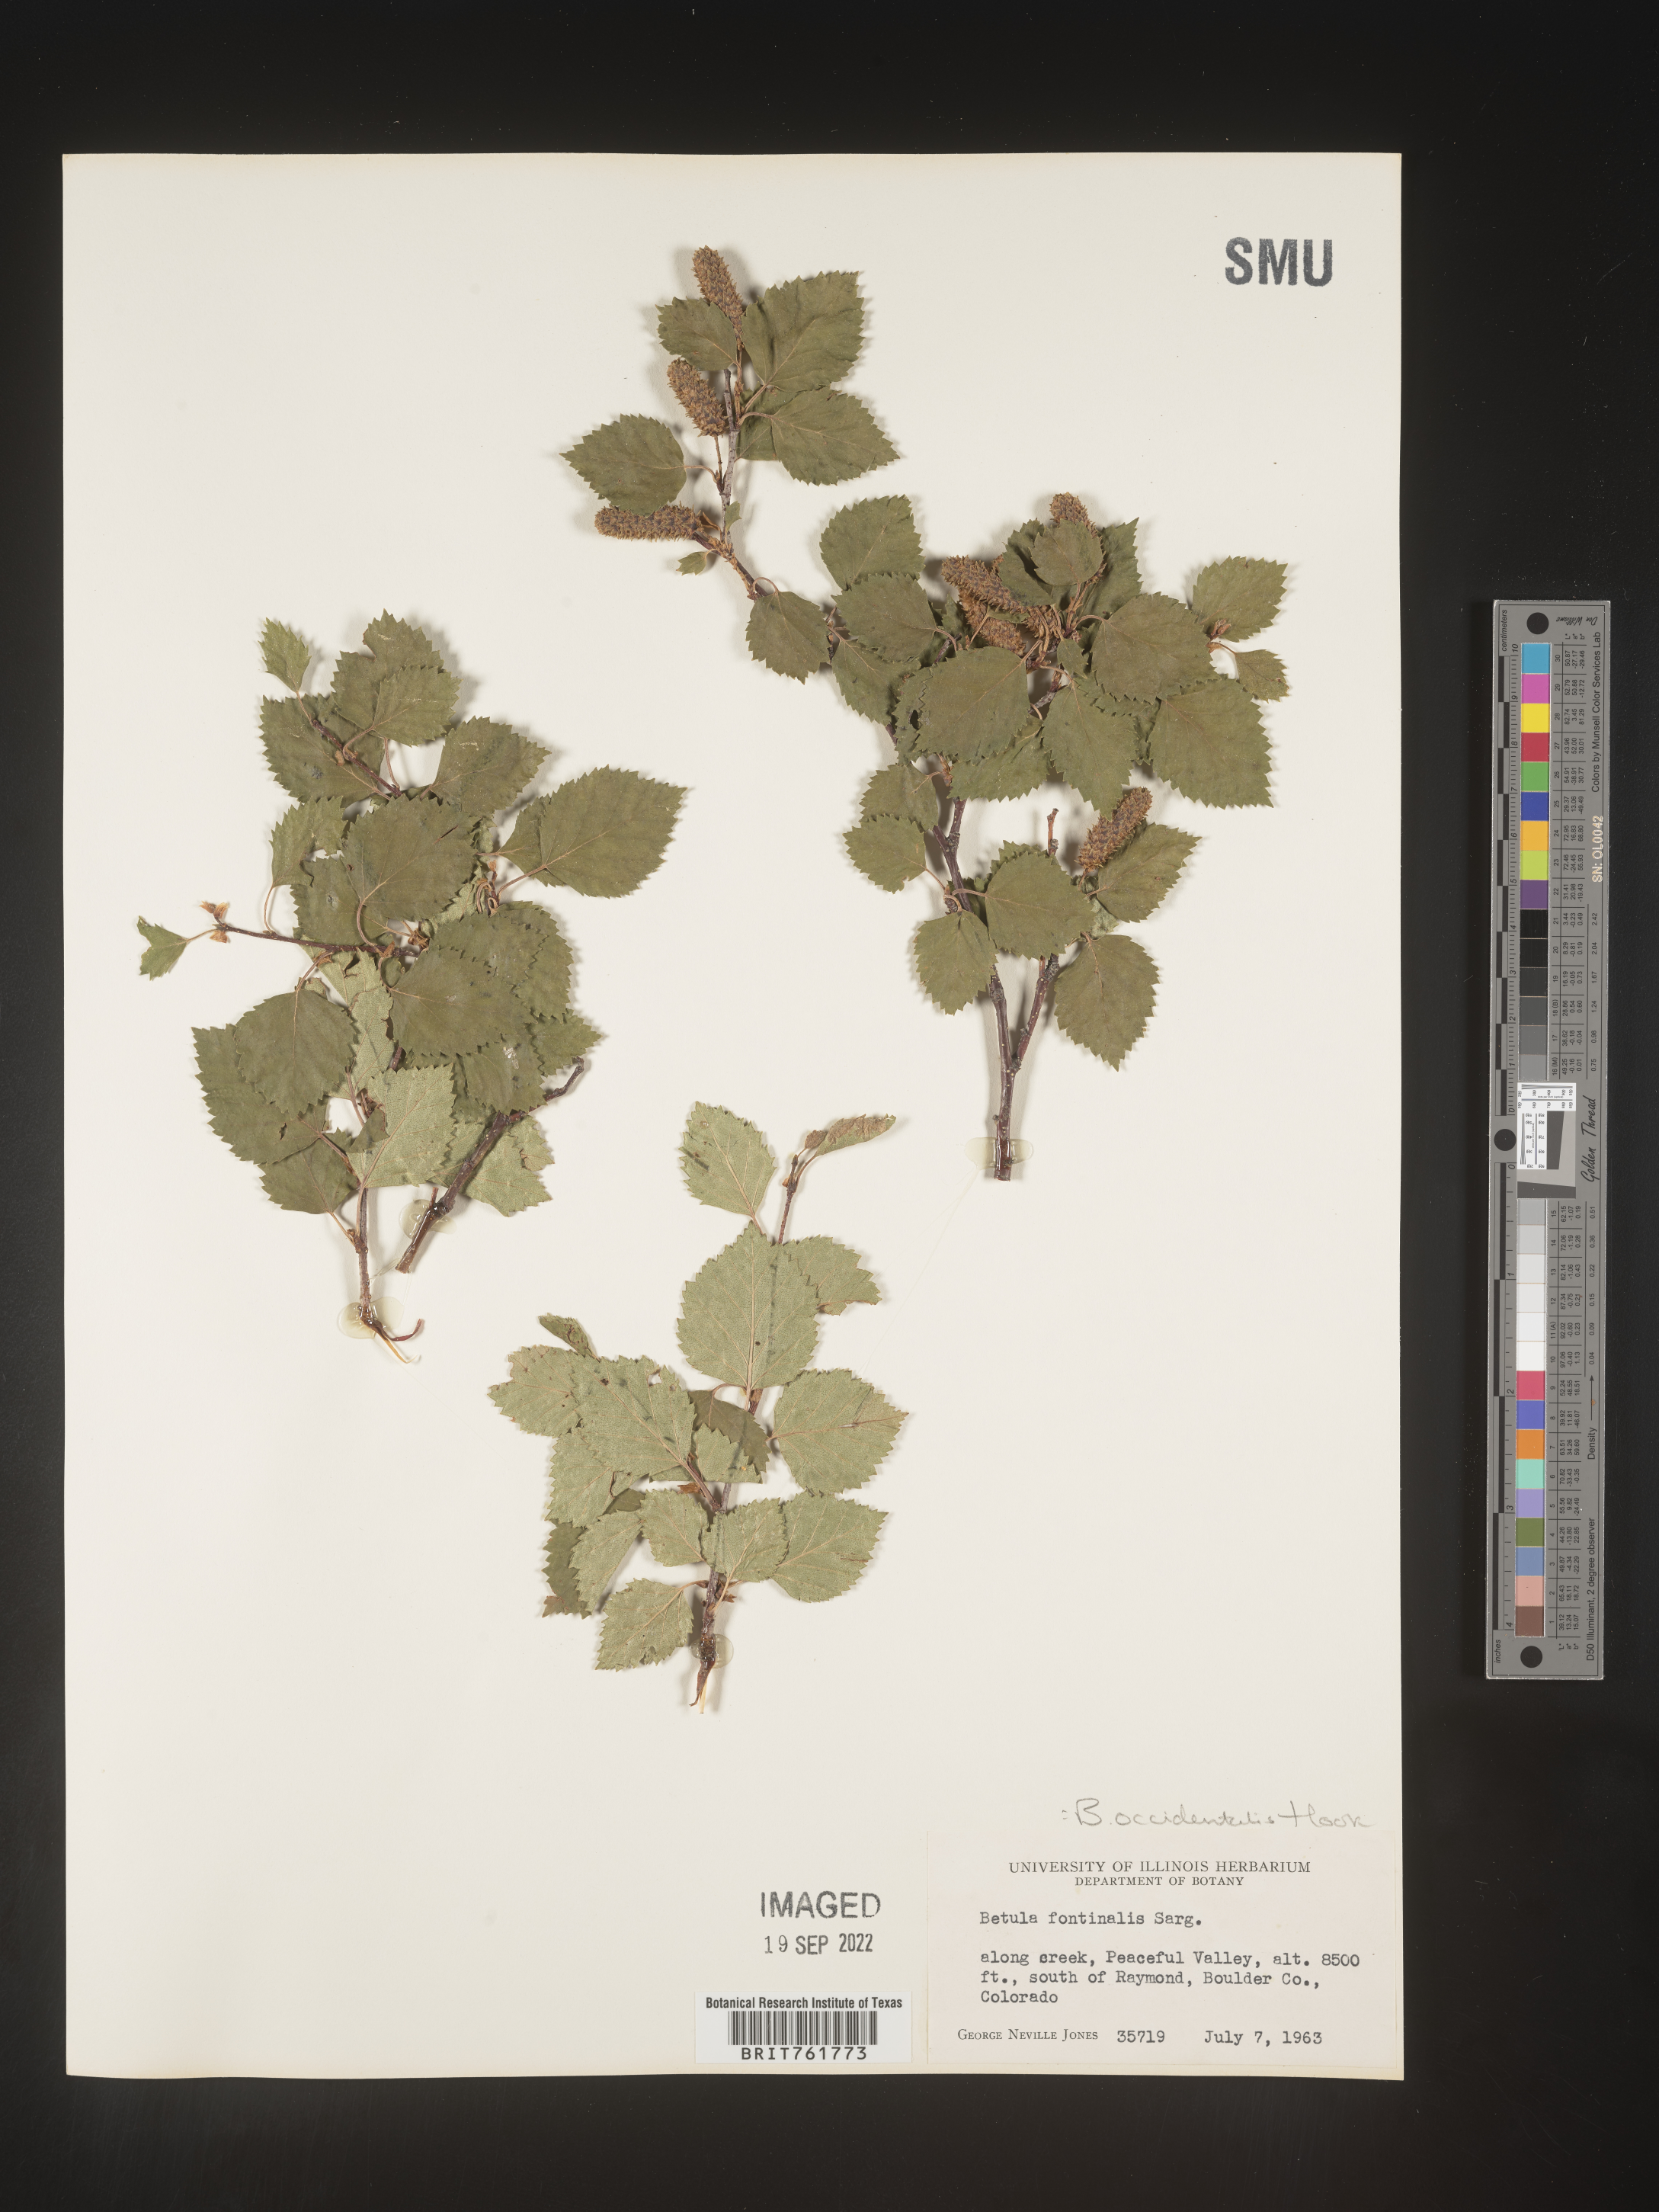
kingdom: Plantae
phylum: Tracheophyta
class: Magnoliopsida
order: Fagales
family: Betulaceae
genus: Betula
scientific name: Betula occidentalis
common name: River birch
